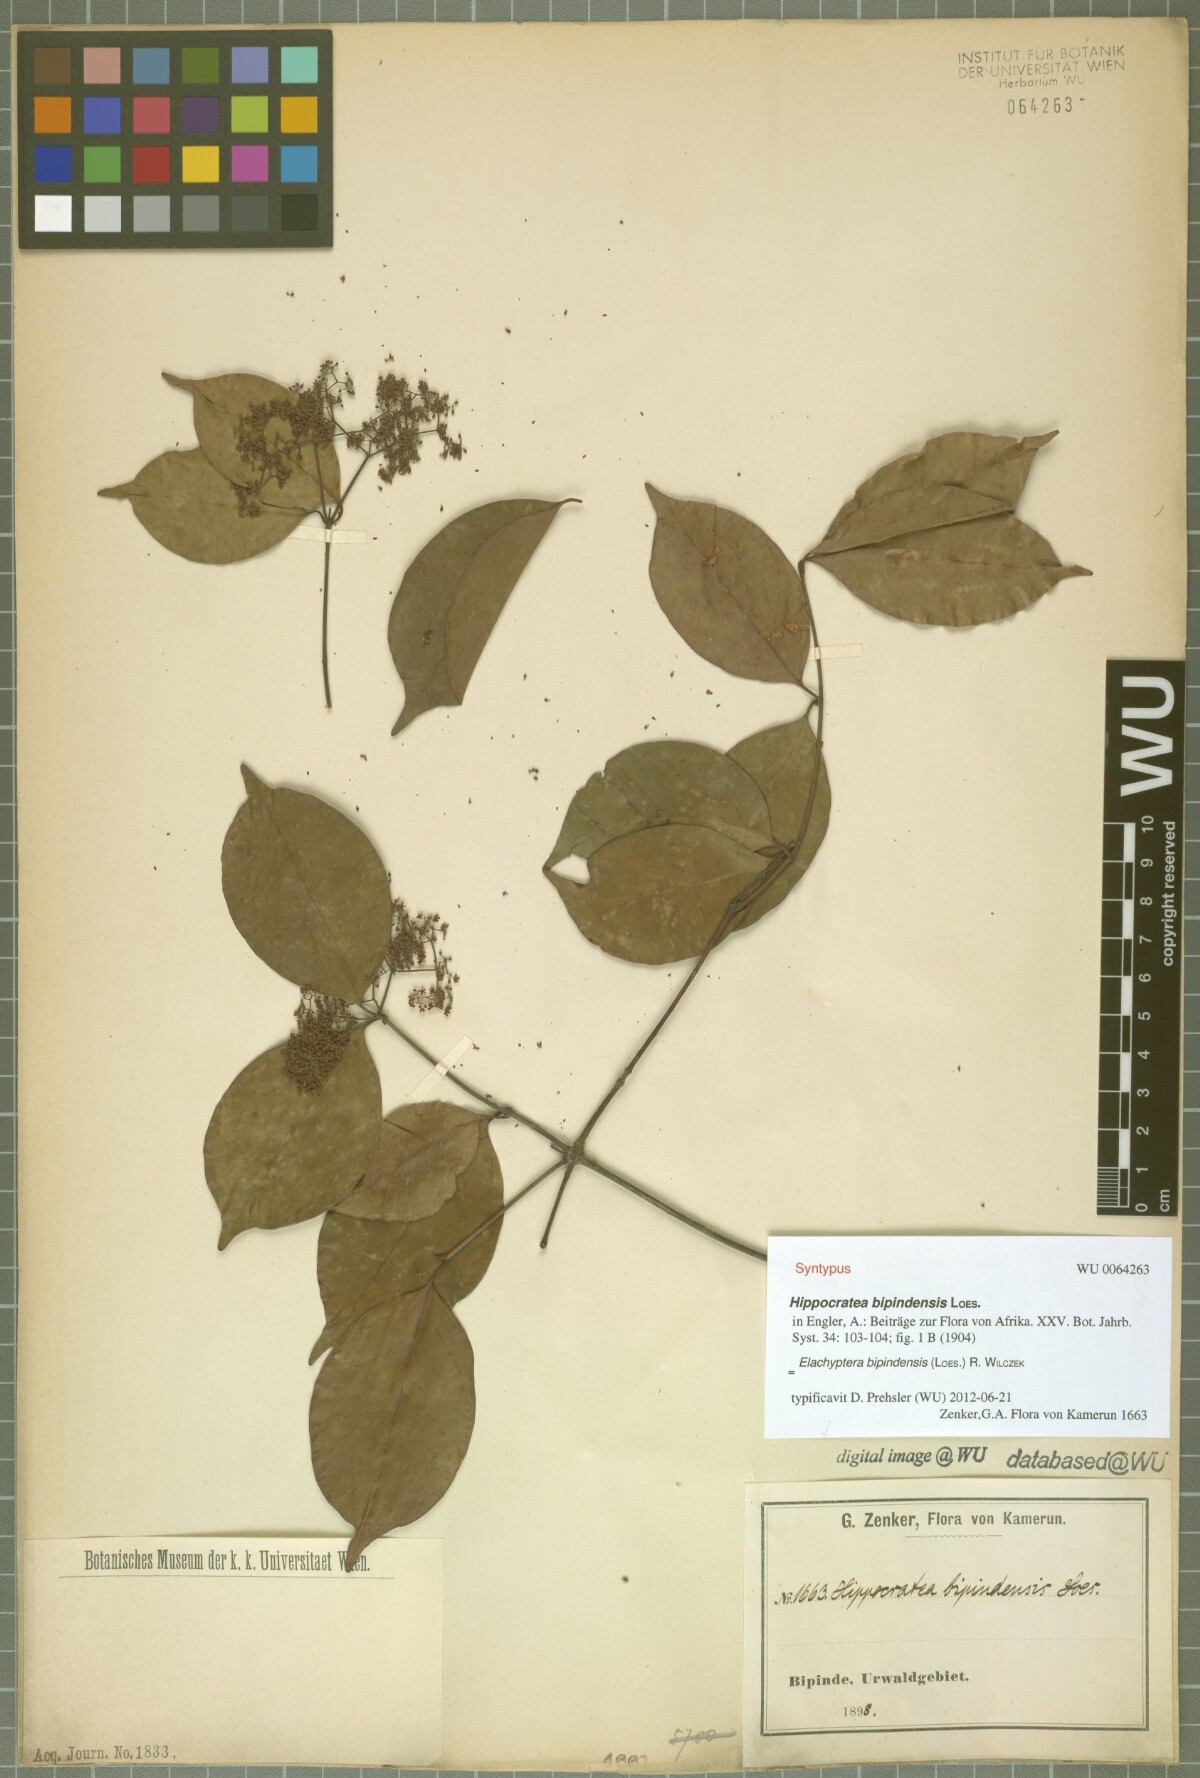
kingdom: Plantae
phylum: Tracheophyta
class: Magnoliopsida
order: Celastrales
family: Celastraceae
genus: Elachyptera
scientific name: Elachyptera bipindensis
